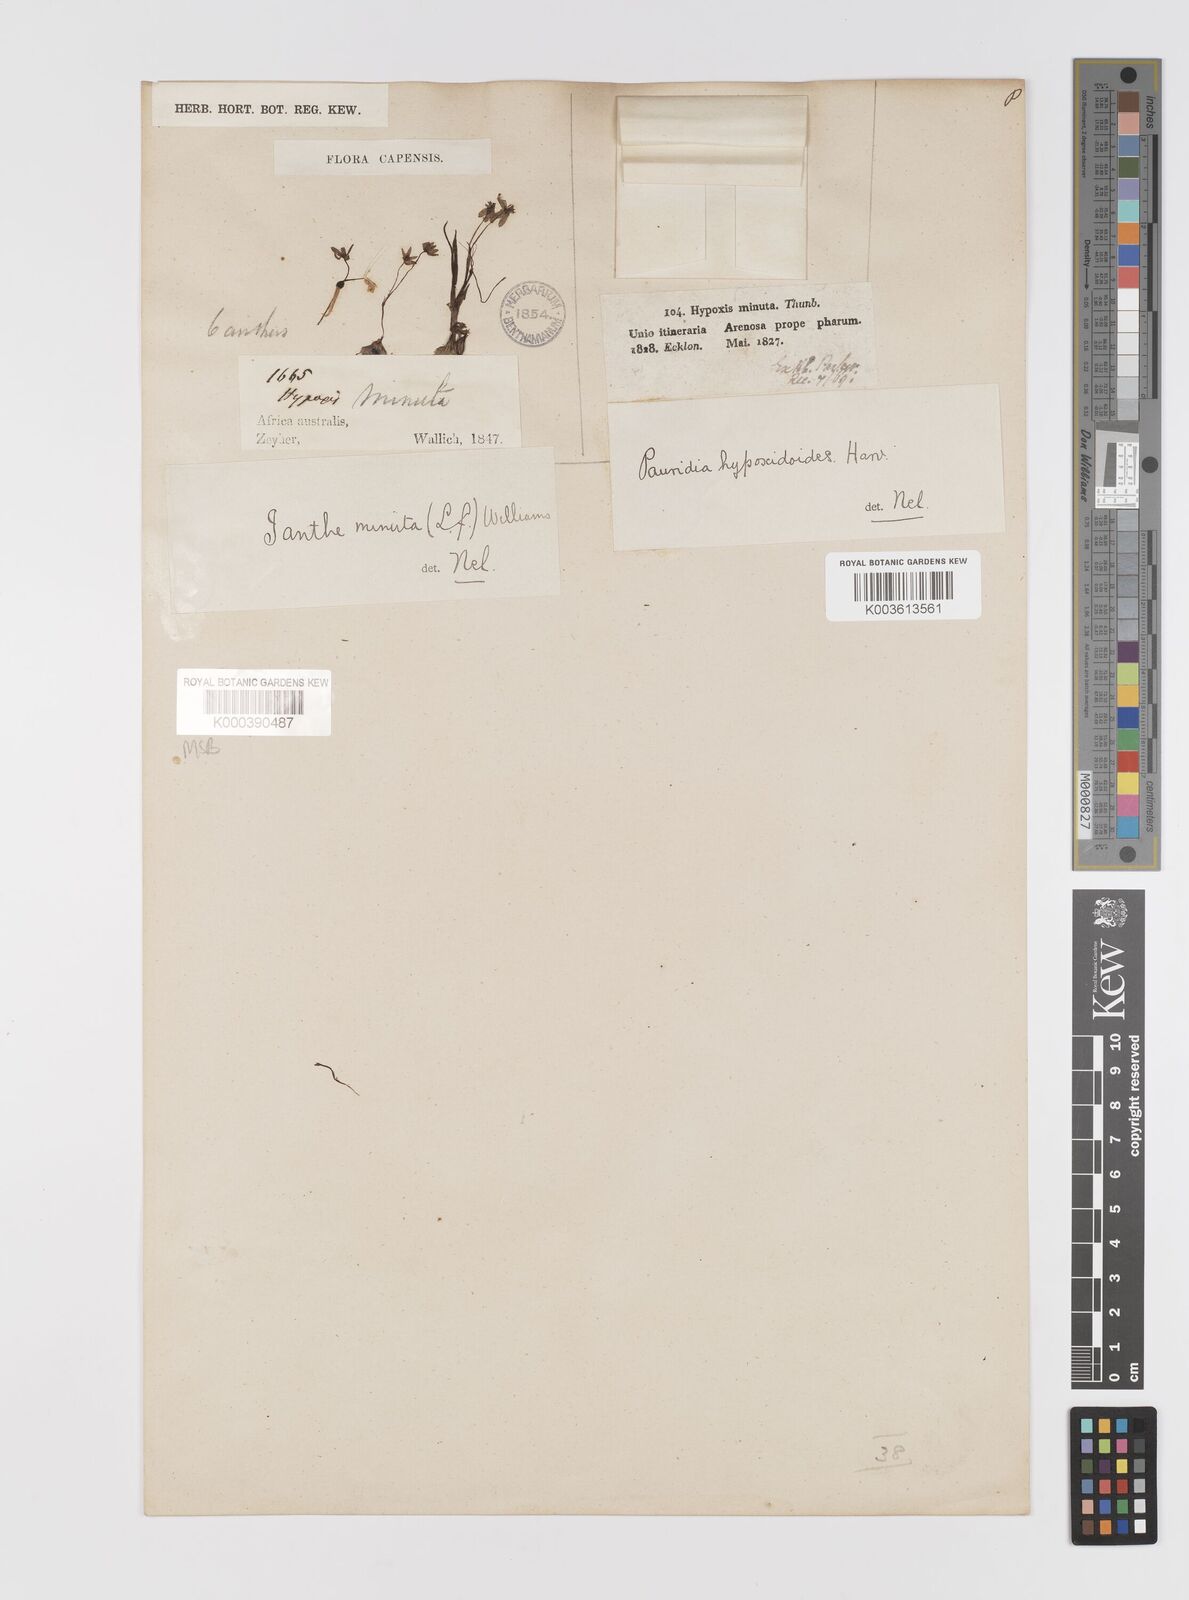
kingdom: Plantae
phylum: Tracheophyta
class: Liliopsida
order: Asparagales
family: Hypoxidaceae
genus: Pauridia
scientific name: Pauridia minuta
